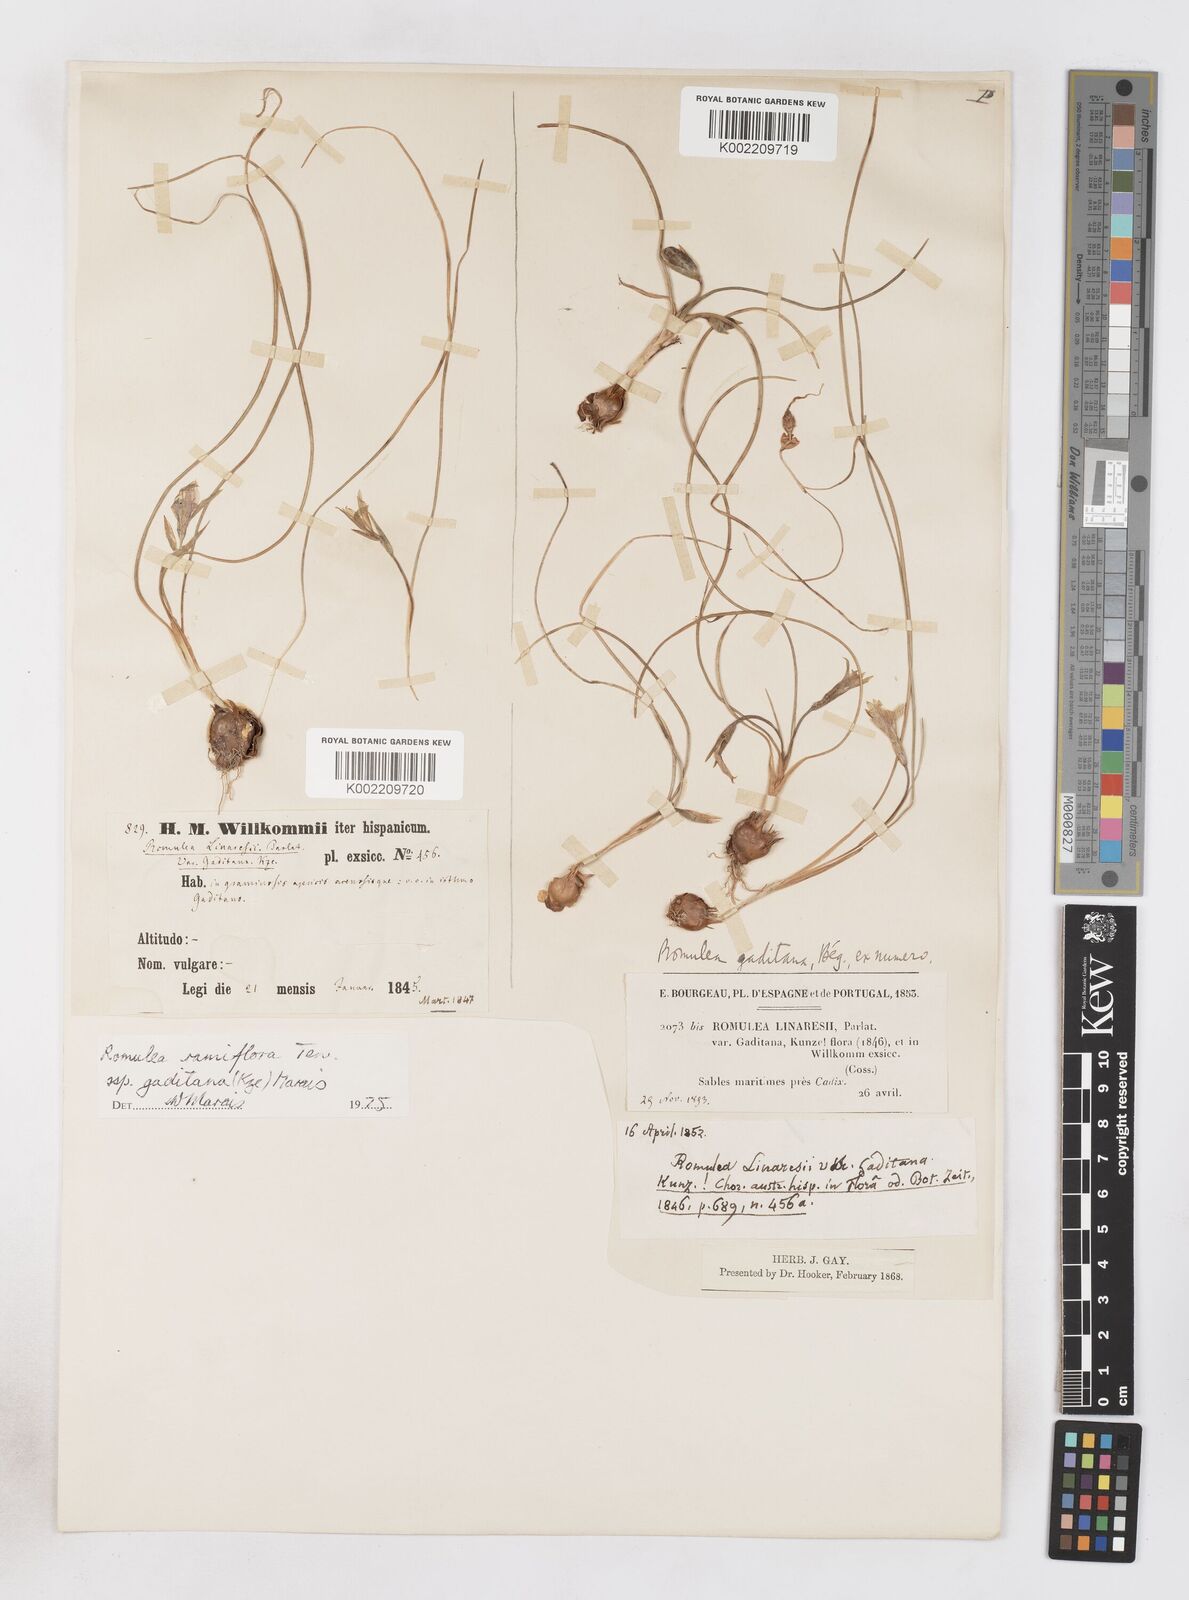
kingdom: Plantae
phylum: Tracheophyta
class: Liliopsida
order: Asparagales
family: Iridaceae
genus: Romulea
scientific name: Romulea ramiflora
